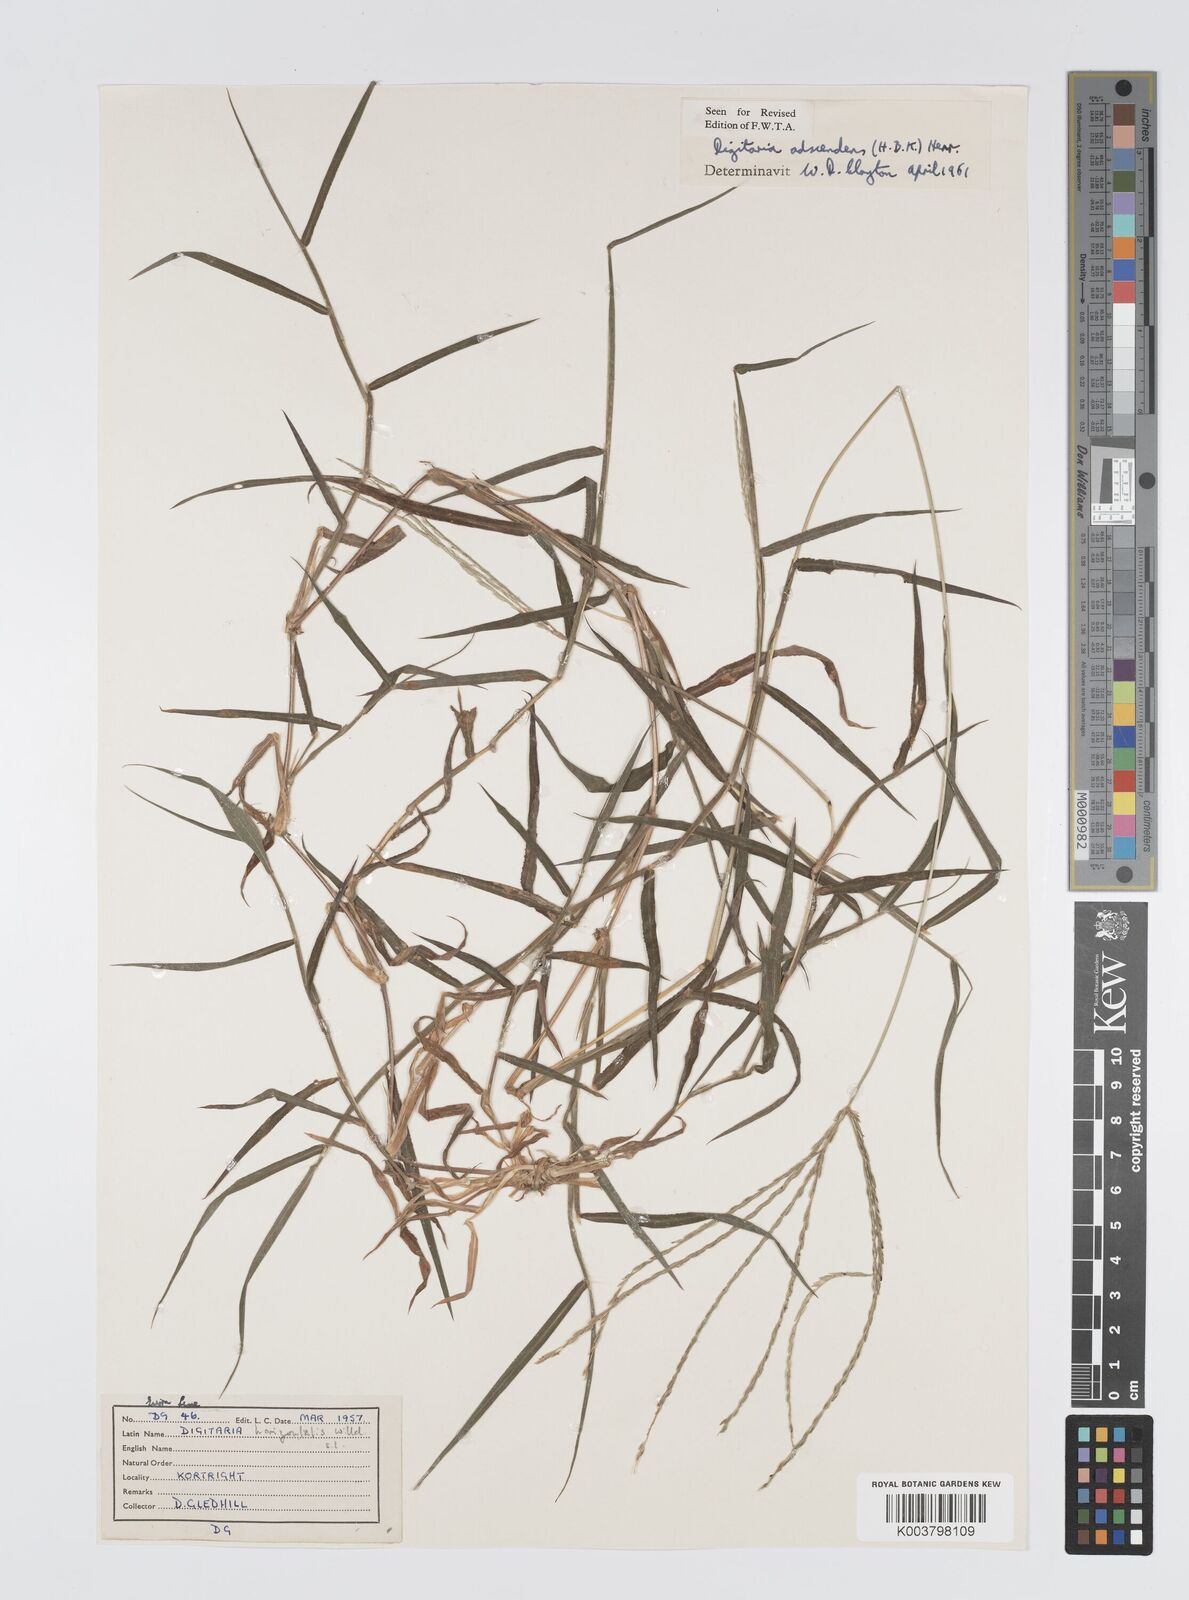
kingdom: Plantae
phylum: Tracheophyta
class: Liliopsida
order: Poales
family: Poaceae
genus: Digitaria
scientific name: Digitaria
